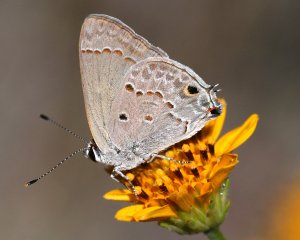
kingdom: Animalia
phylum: Arthropoda
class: Insecta
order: Lepidoptera
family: Lycaenidae
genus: Callicista
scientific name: Callicista columella
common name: Mallow Scrub-Hairstreak
